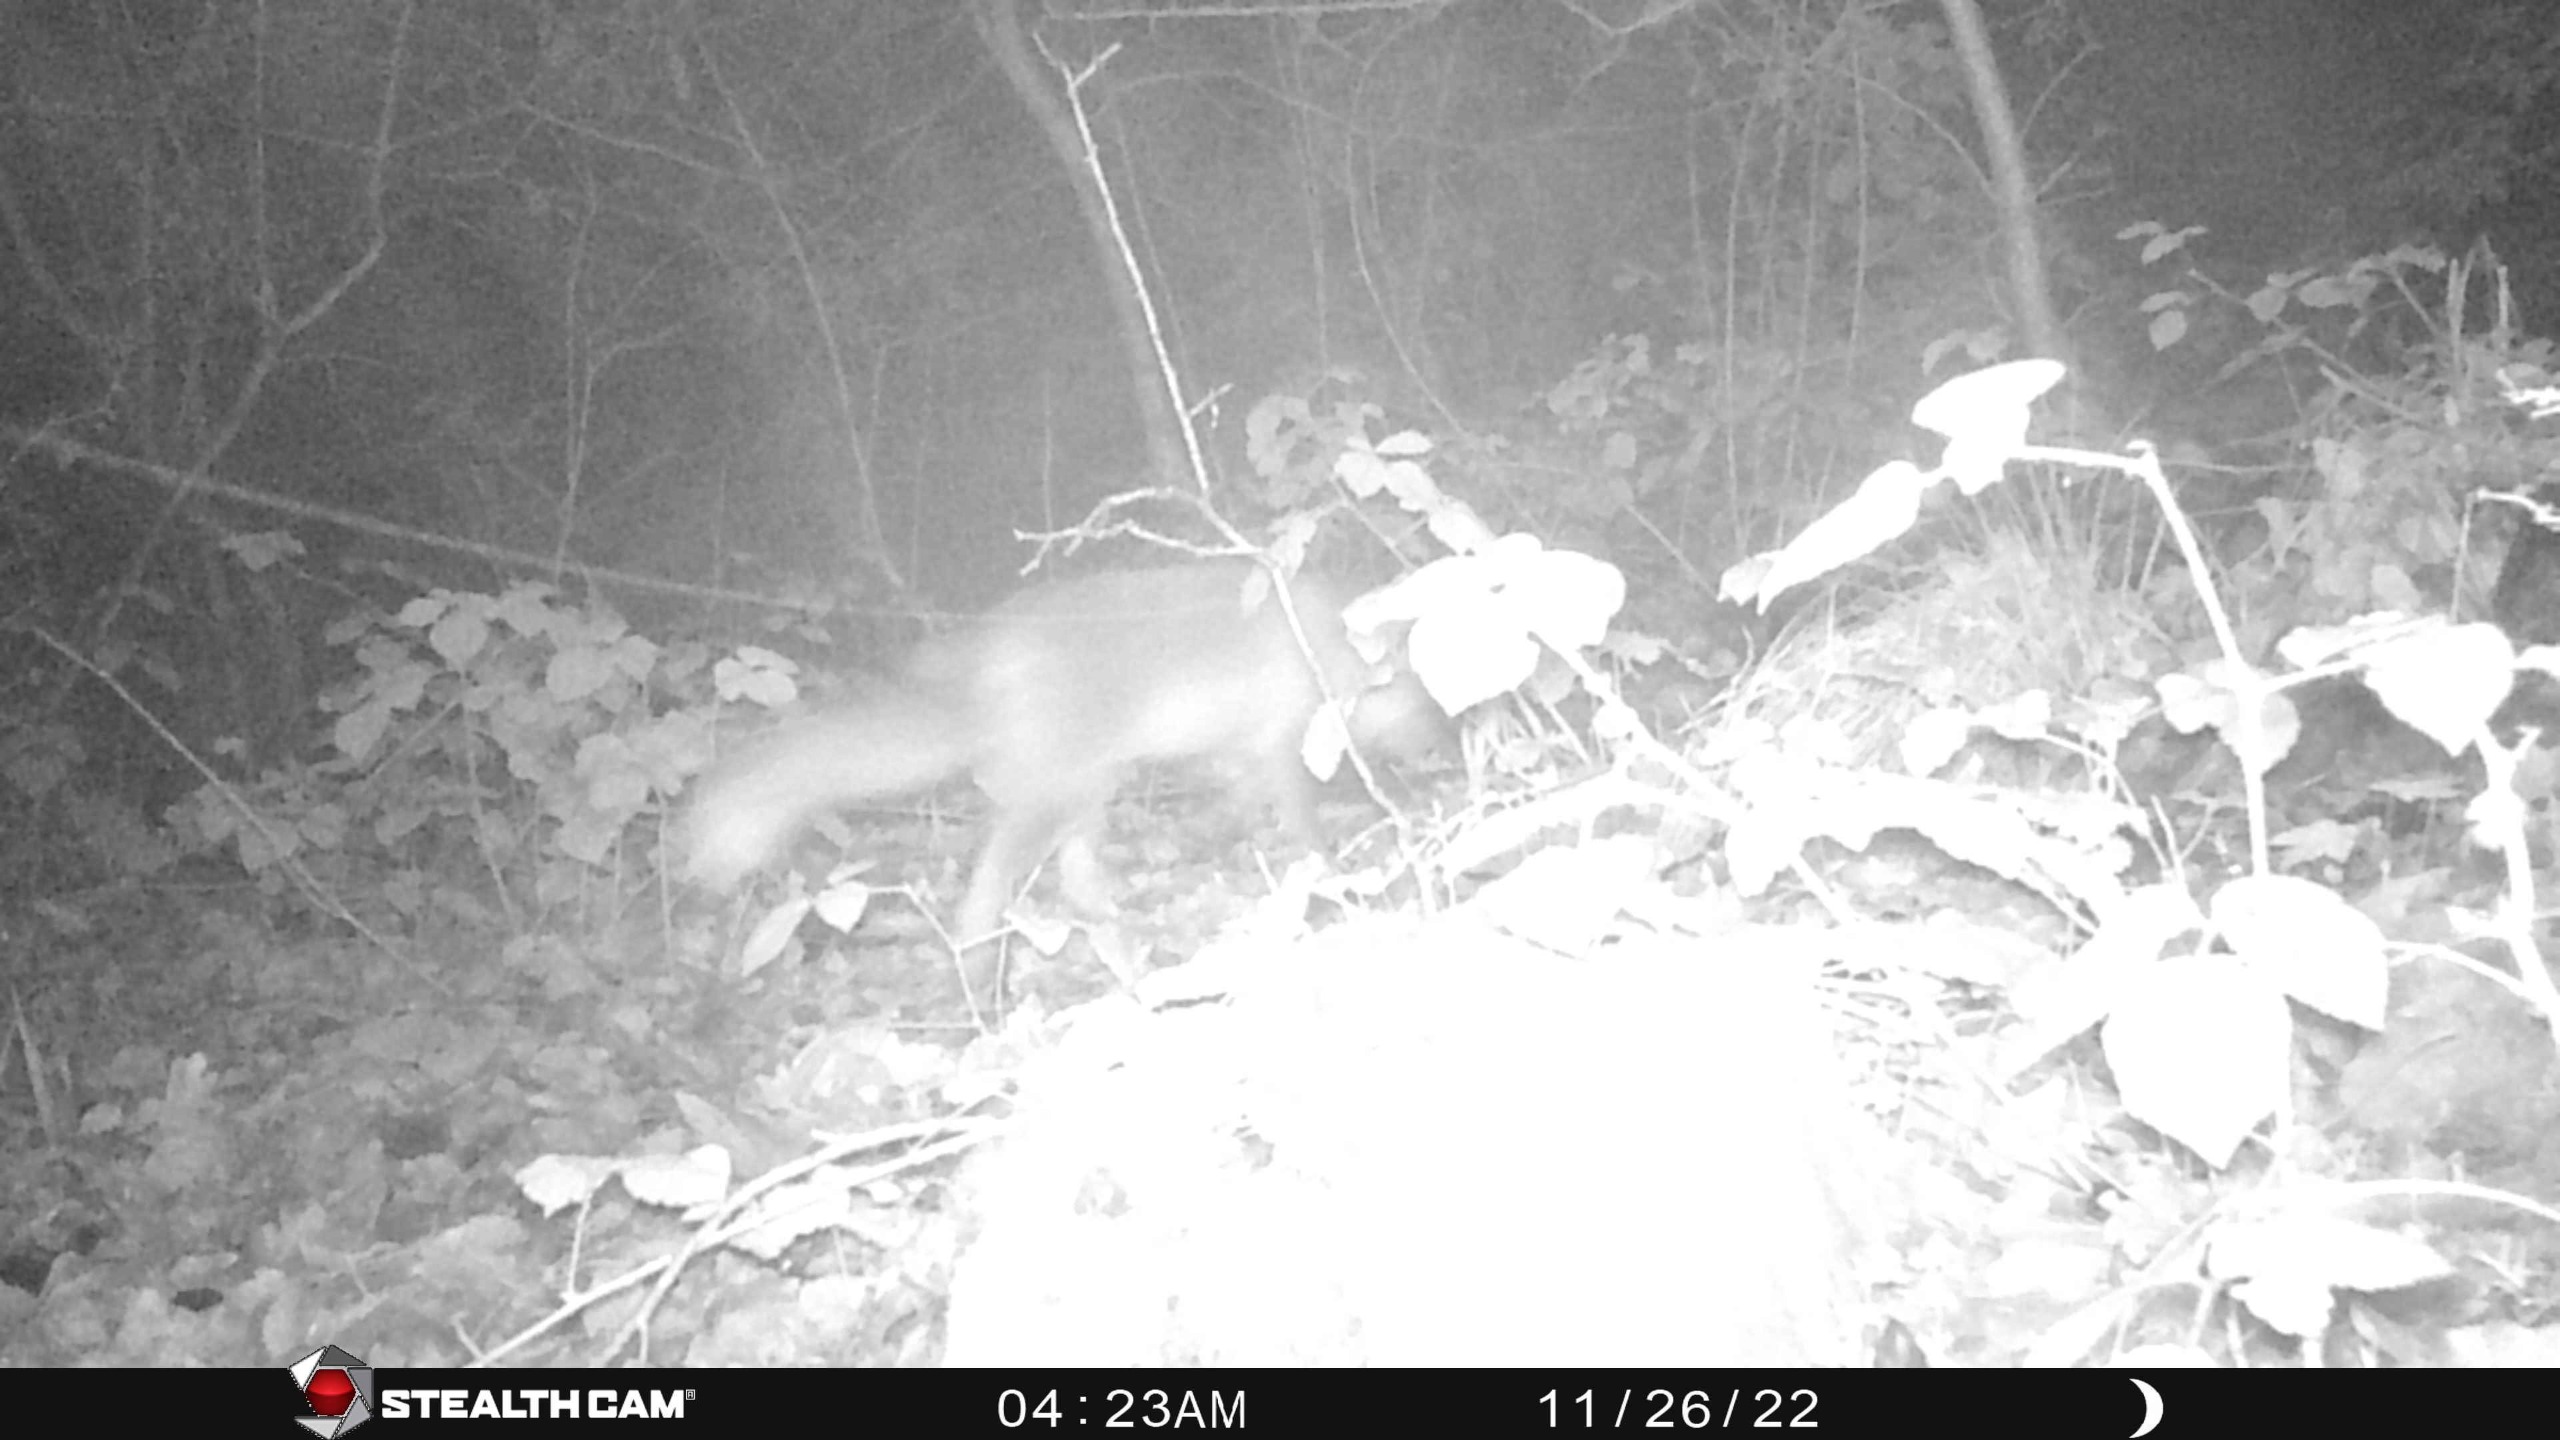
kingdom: Animalia
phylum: Chordata
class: Mammalia
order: Carnivora
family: Canidae
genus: Vulpes
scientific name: Vulpes vulpes
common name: Ræv
